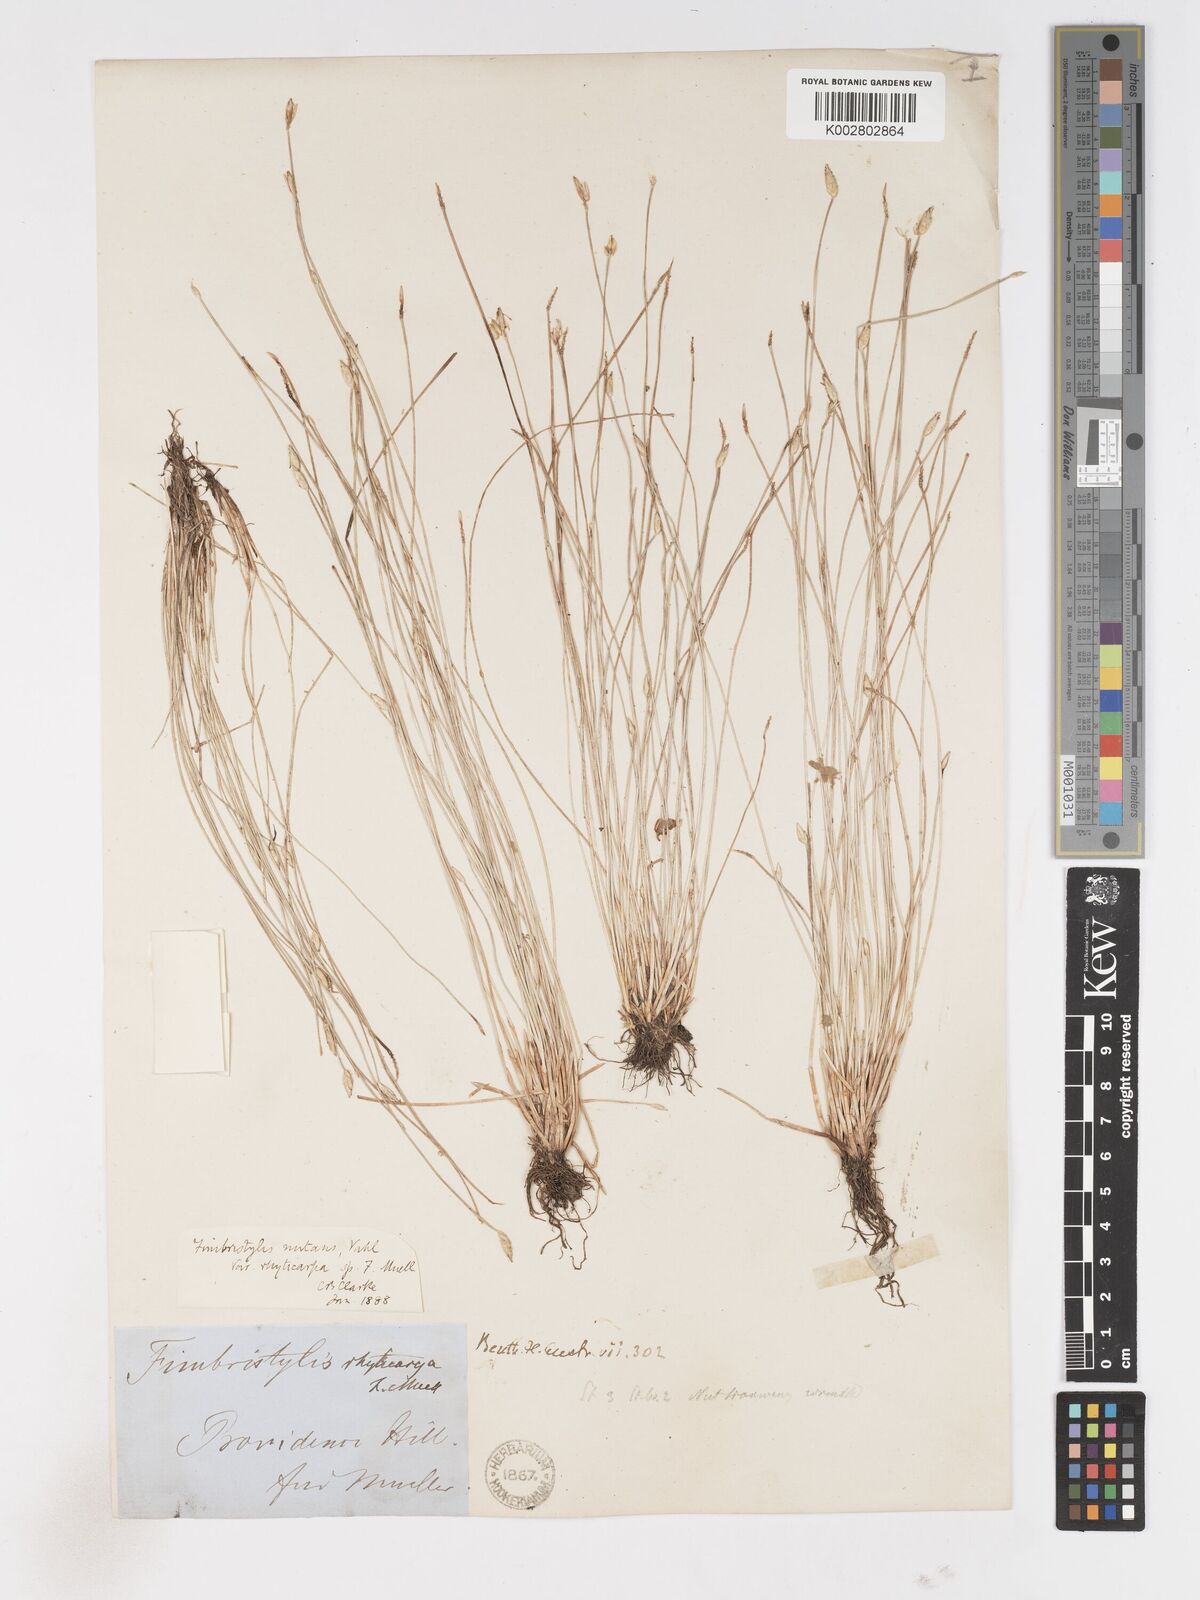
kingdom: Plantae
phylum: Tracheophyta
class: Liliopsida
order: Poales
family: Cyperaceae
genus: Fimbristylis
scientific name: Fimbristylis rhyticarya
